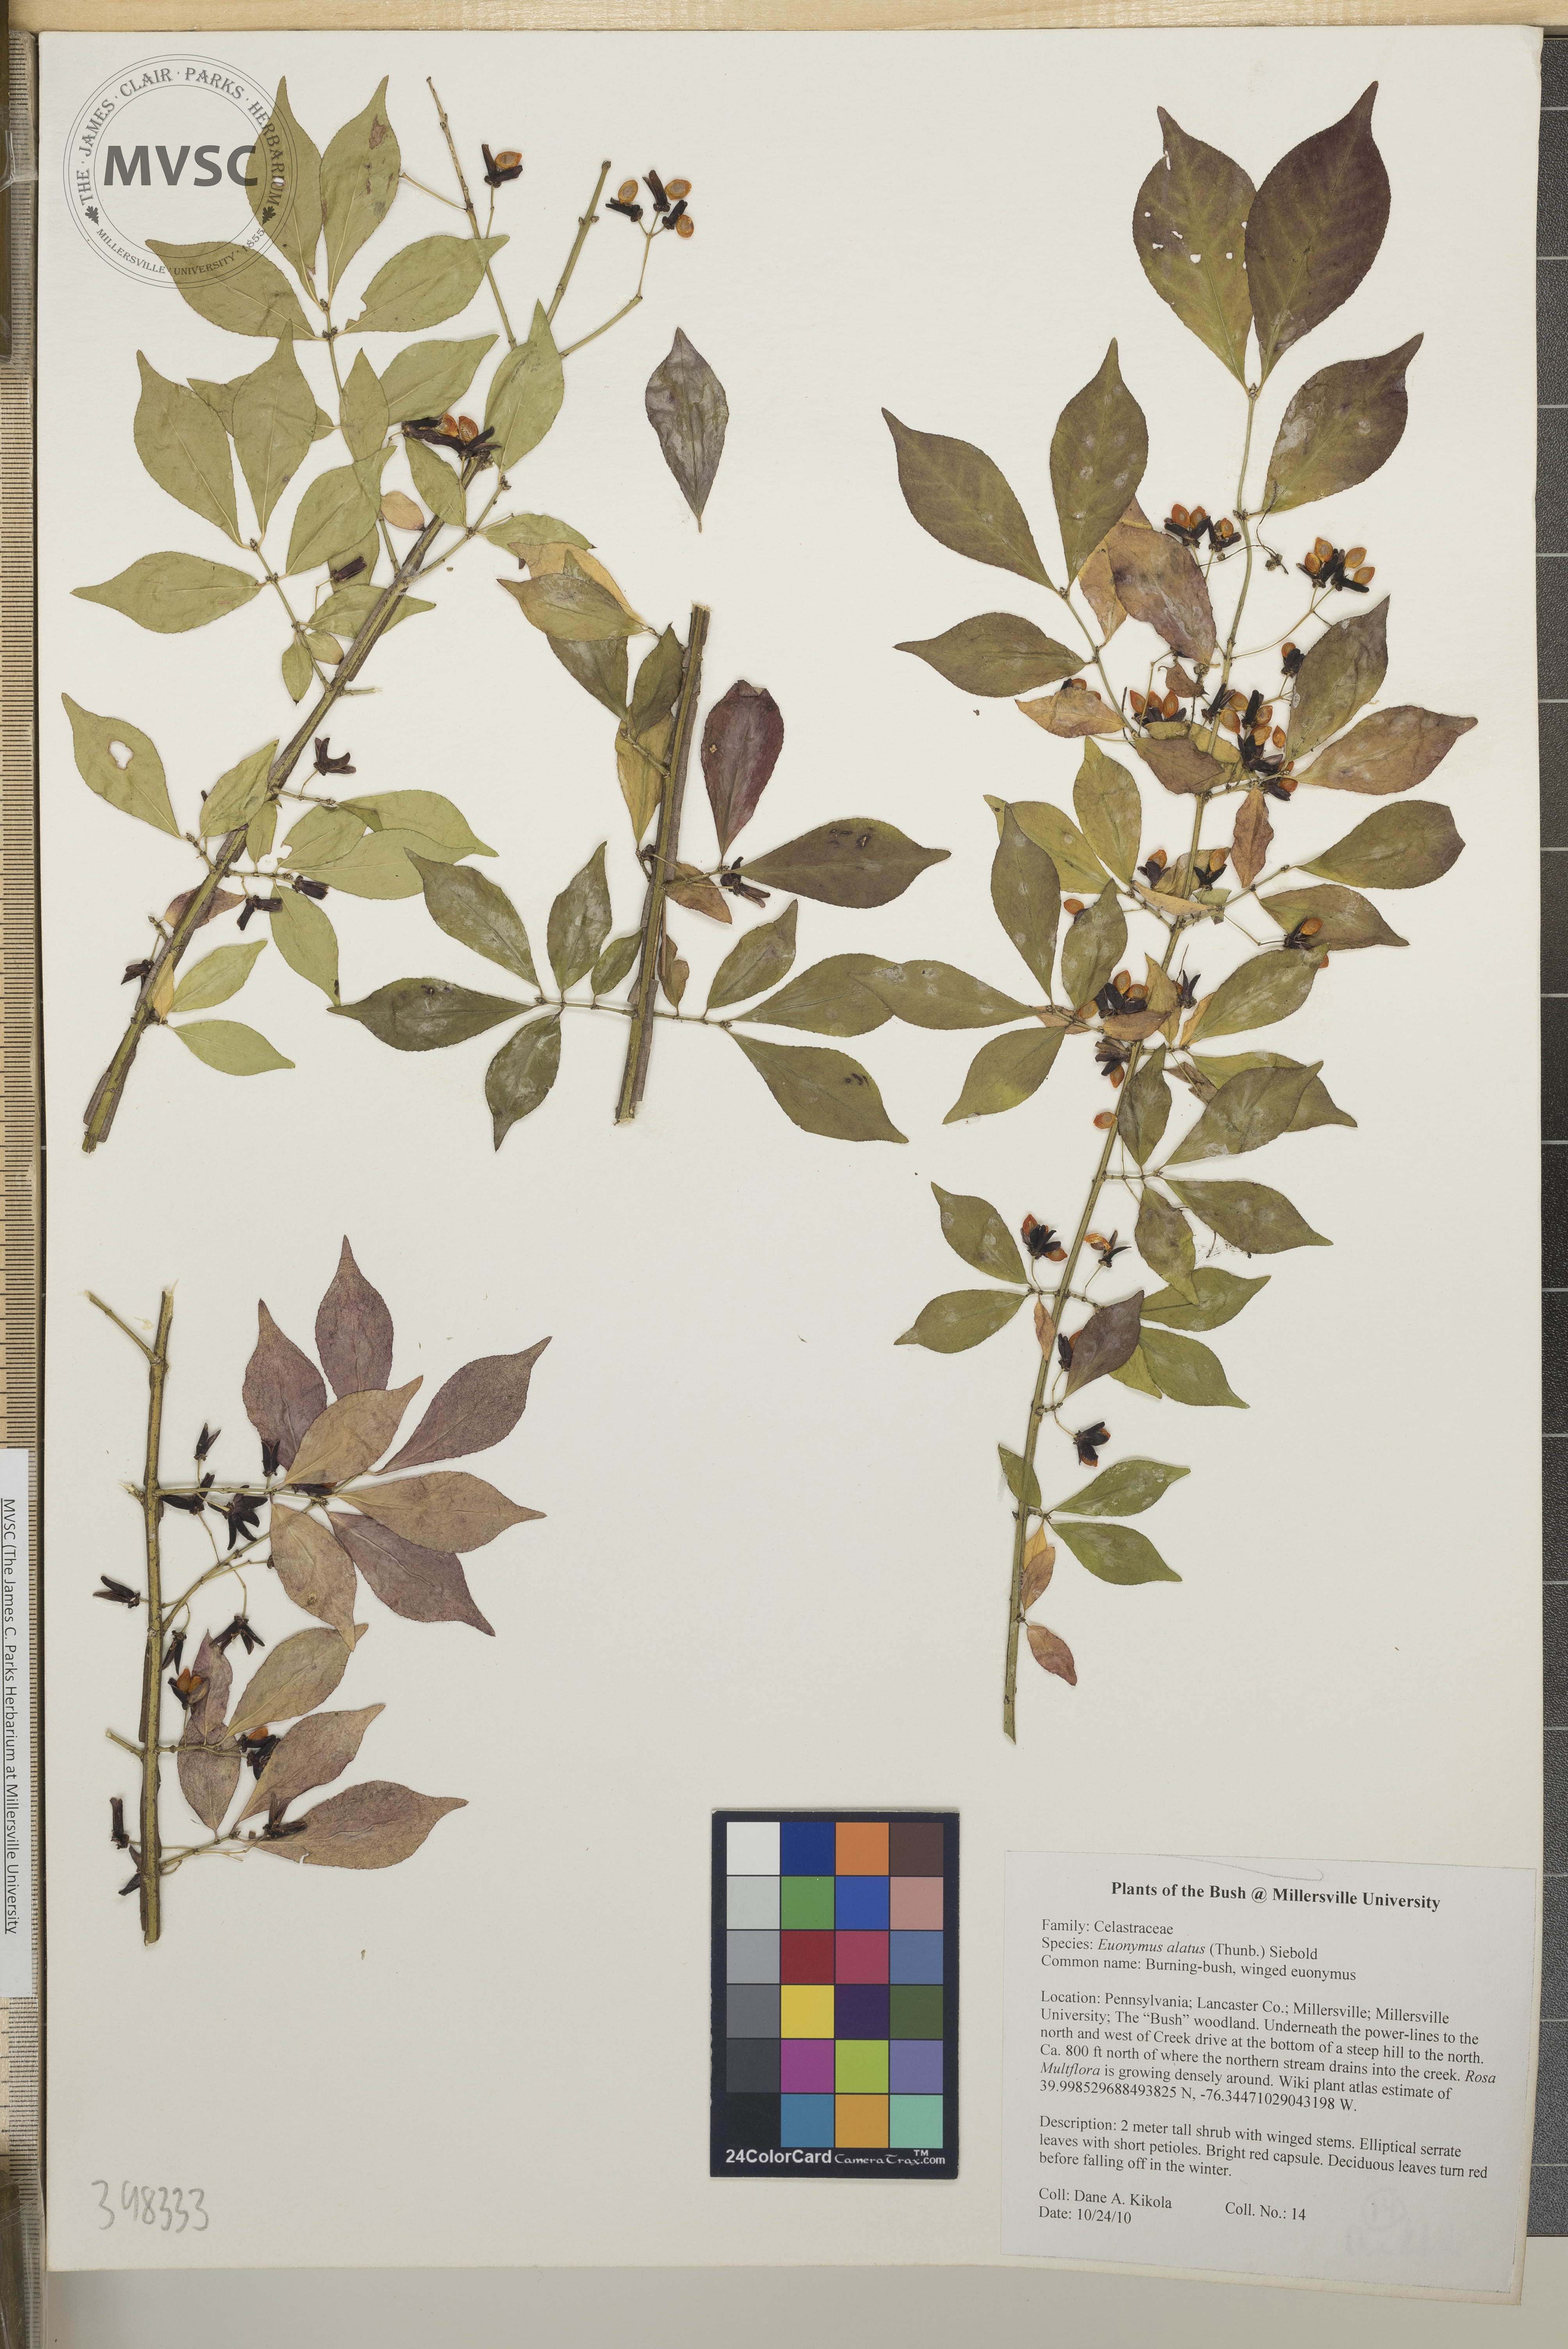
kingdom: Plantae
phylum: Tracheophyta
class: Magnoliopsida
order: Celastrales
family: Celastraceae
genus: Euonymus
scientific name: Euonymus alatus
